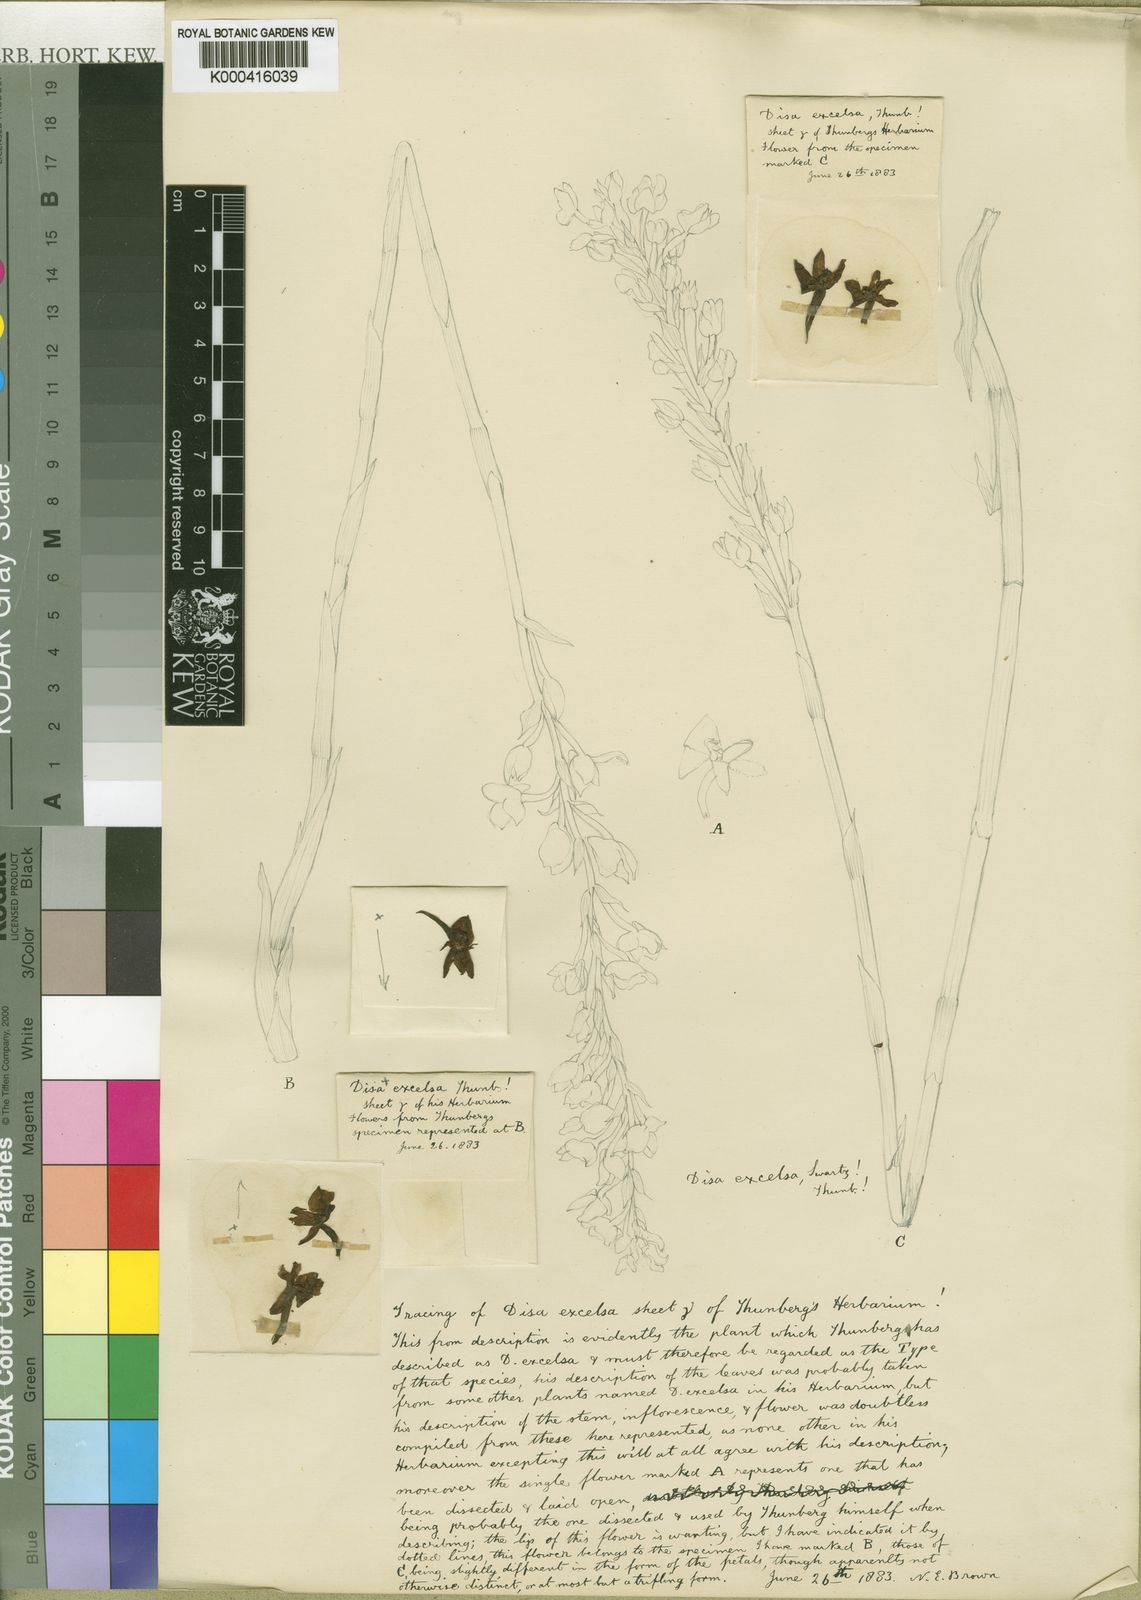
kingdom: Plantae
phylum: Tracheophyta
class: Liliopsida
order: Asparagales
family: Orchidaceae
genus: Disa
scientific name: Disa tripetaloides
